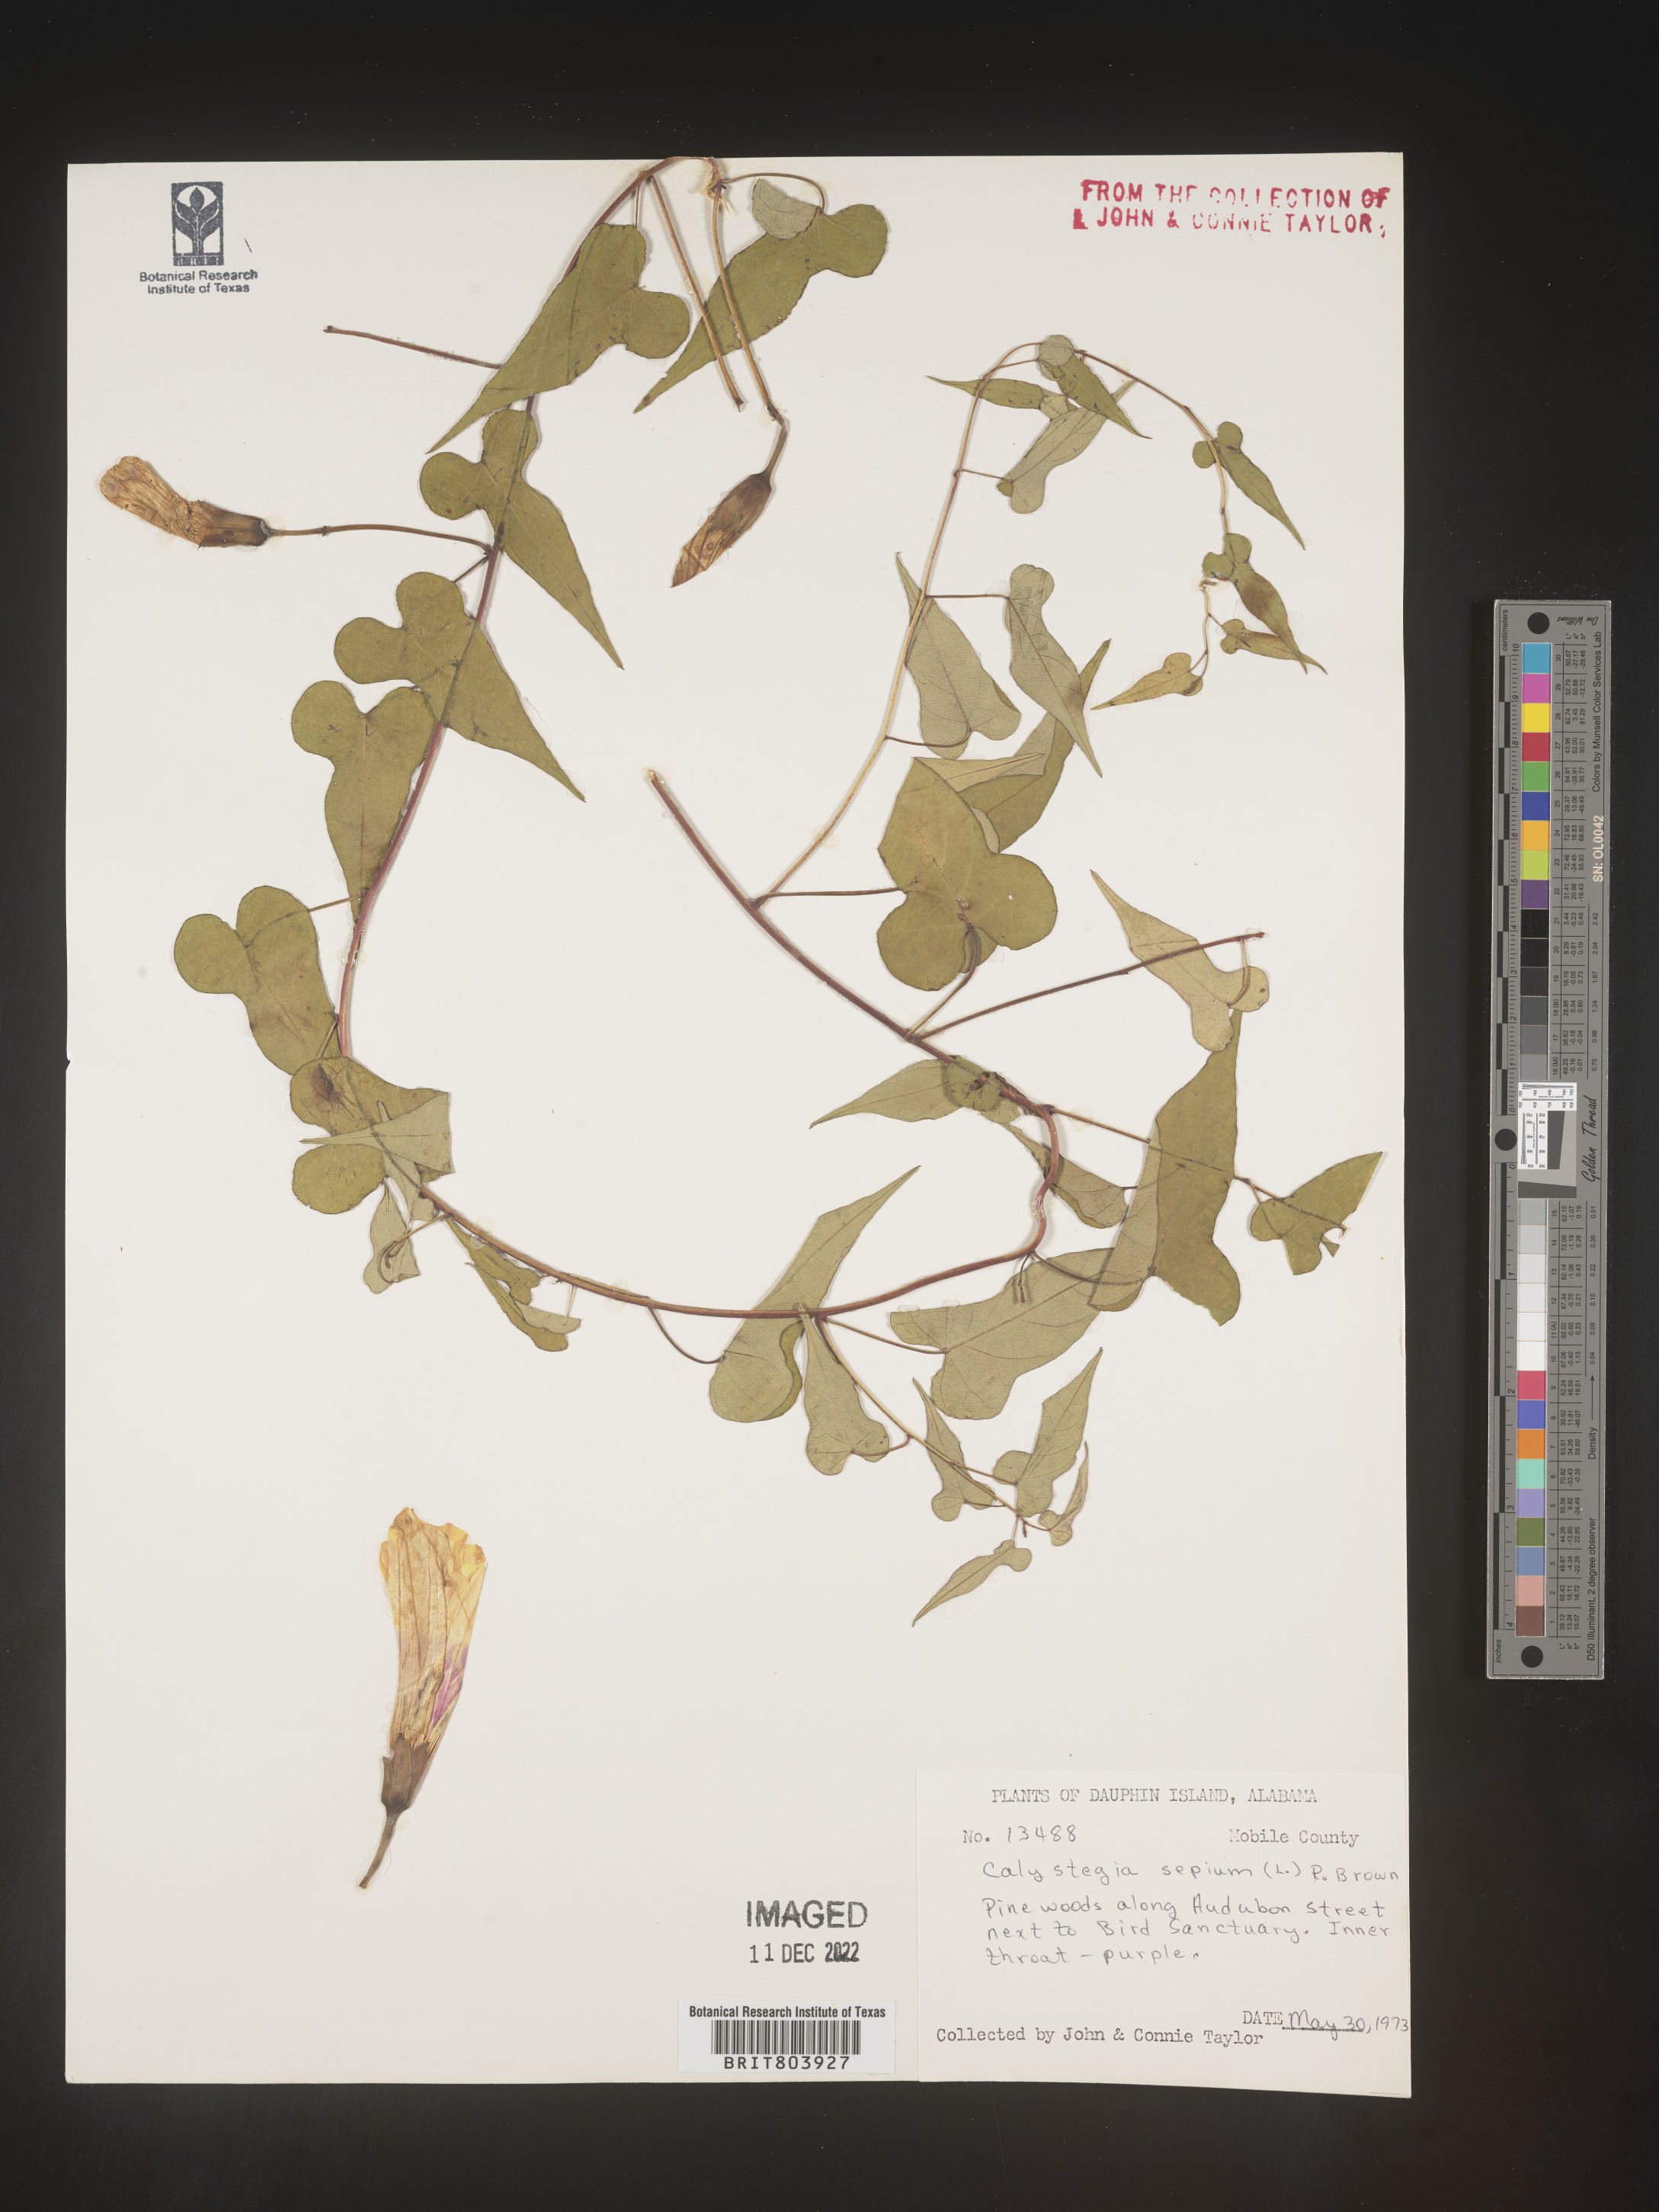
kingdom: Plantae
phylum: Tracheophyta
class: Magnoliopsida
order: Solanales
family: Convolvulaceae
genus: Calystegia
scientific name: Calystegia sepium
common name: Hedge bindweed
